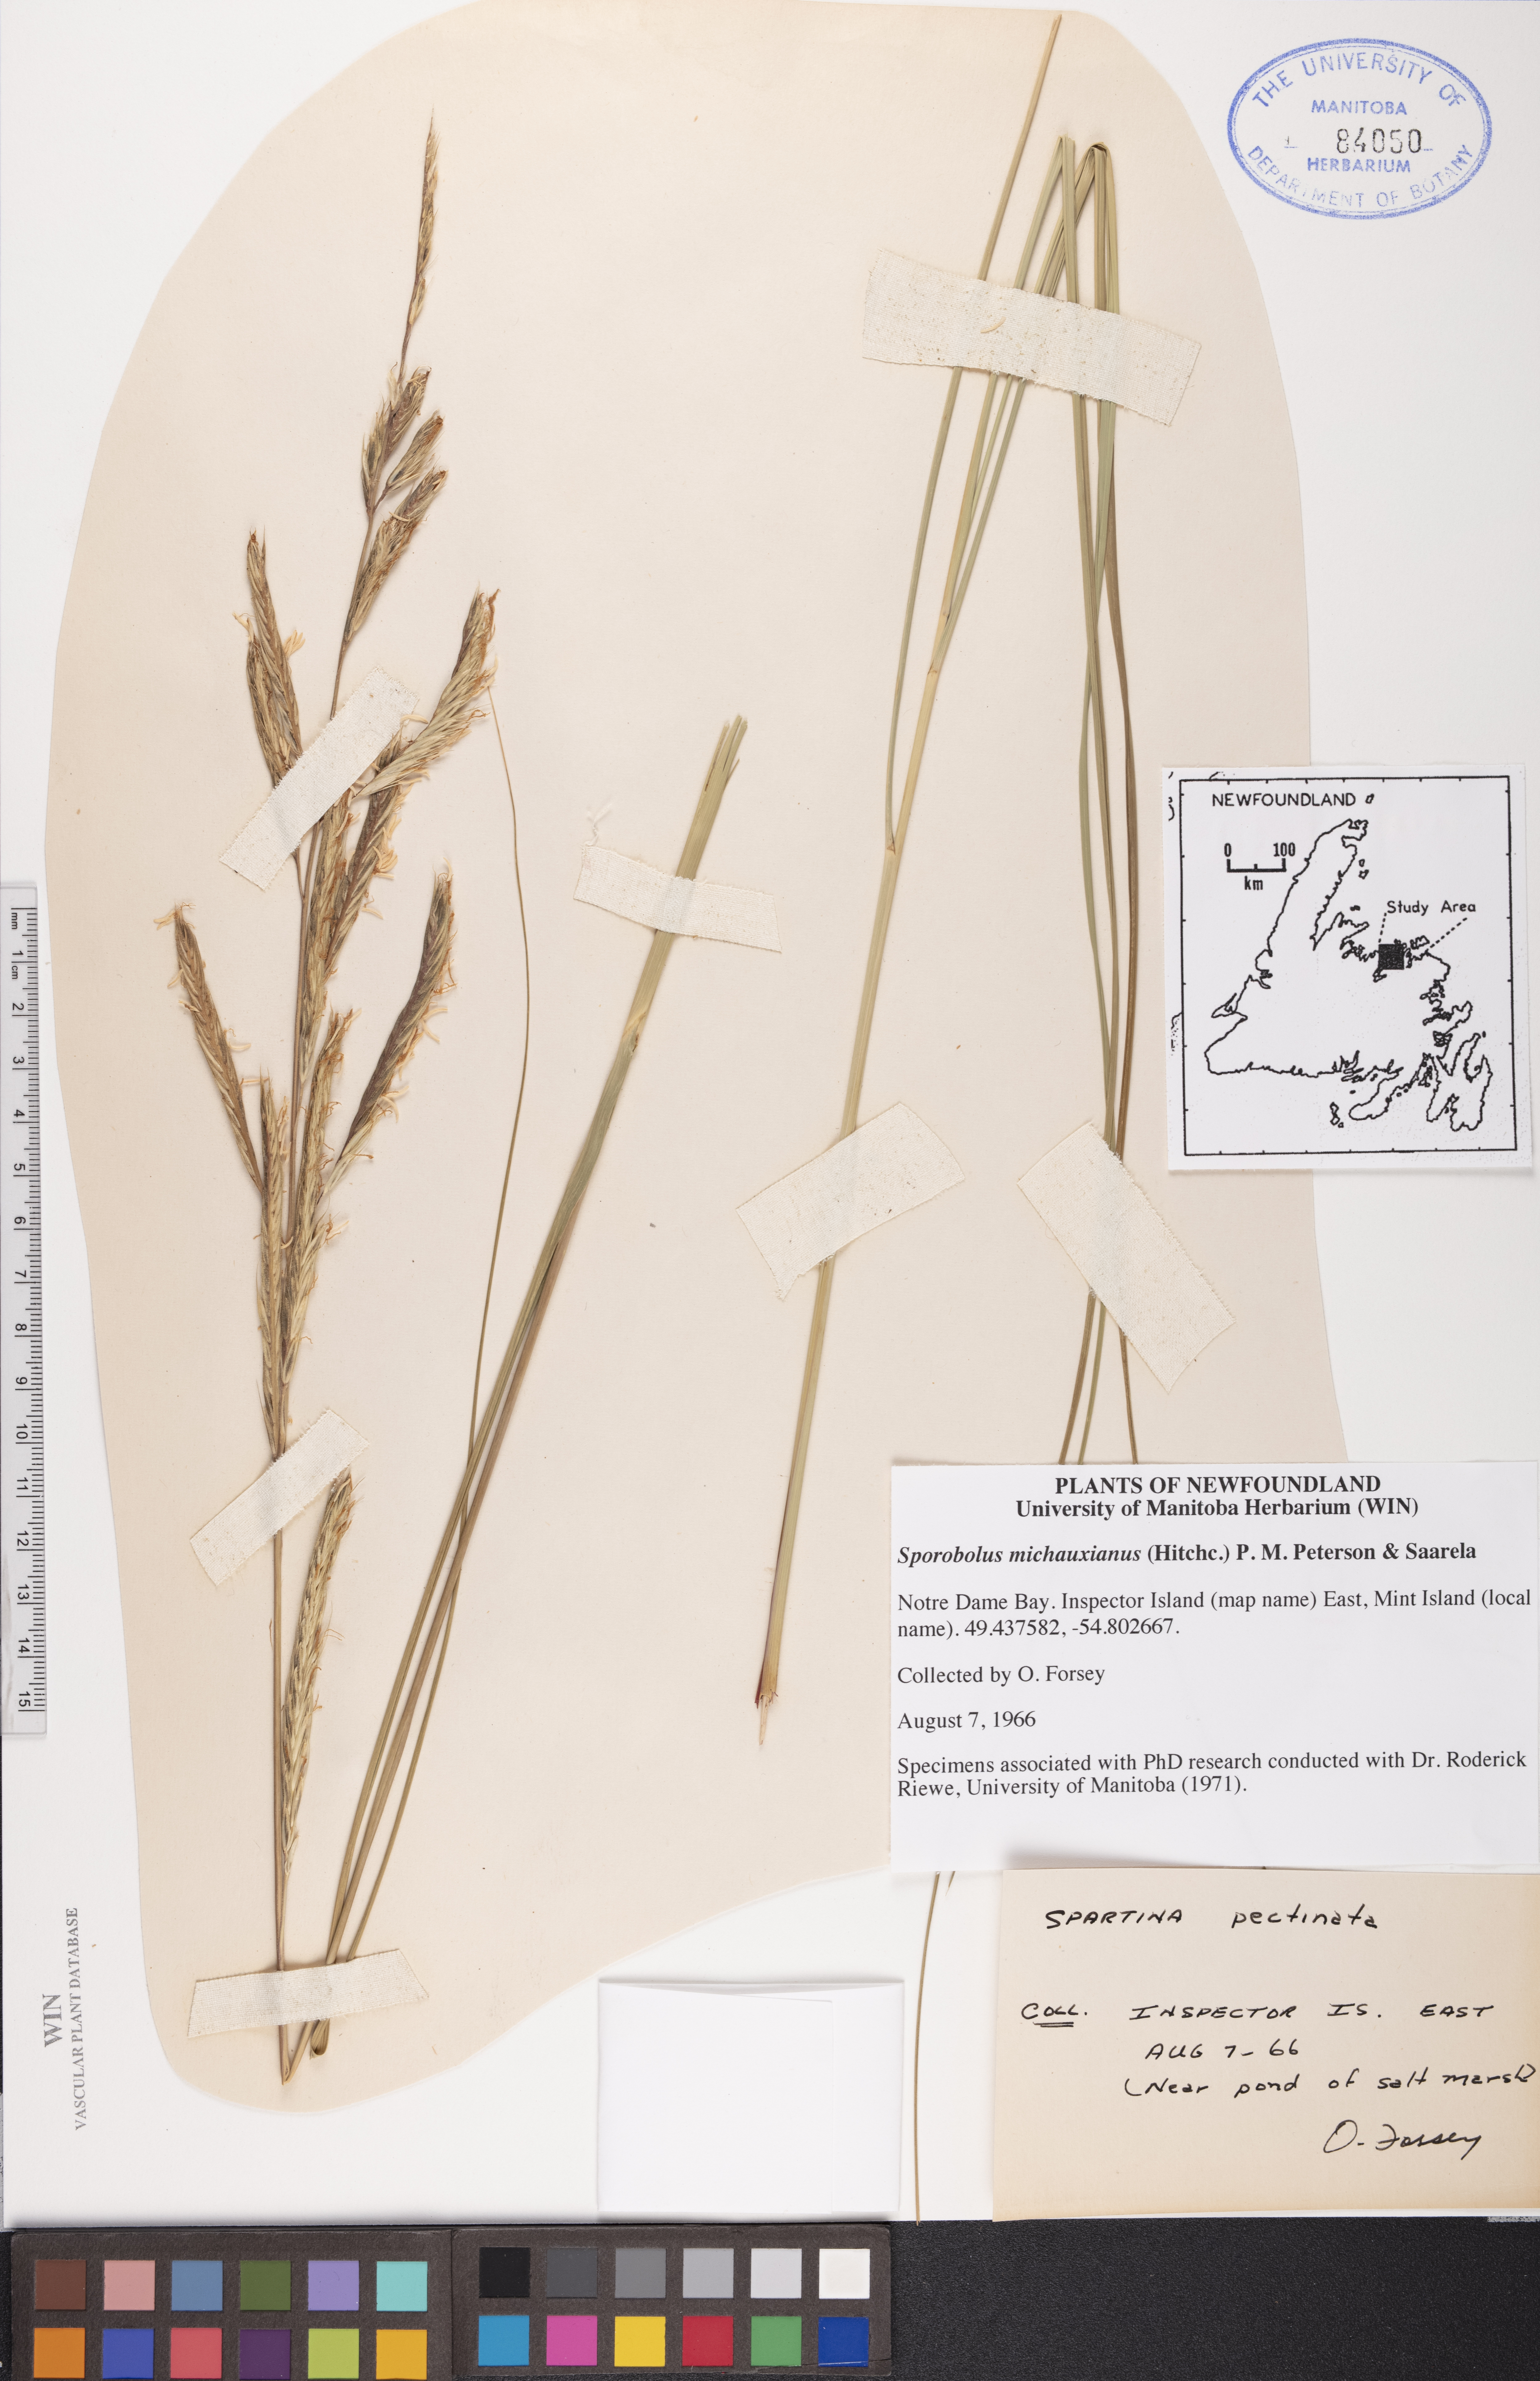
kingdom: Plantae
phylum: Tracheophyta
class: Liliopsida
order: Poales
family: Poaceae
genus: Sporobolus
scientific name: Sporobolus michauxianus
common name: Freshwater cordgrass
